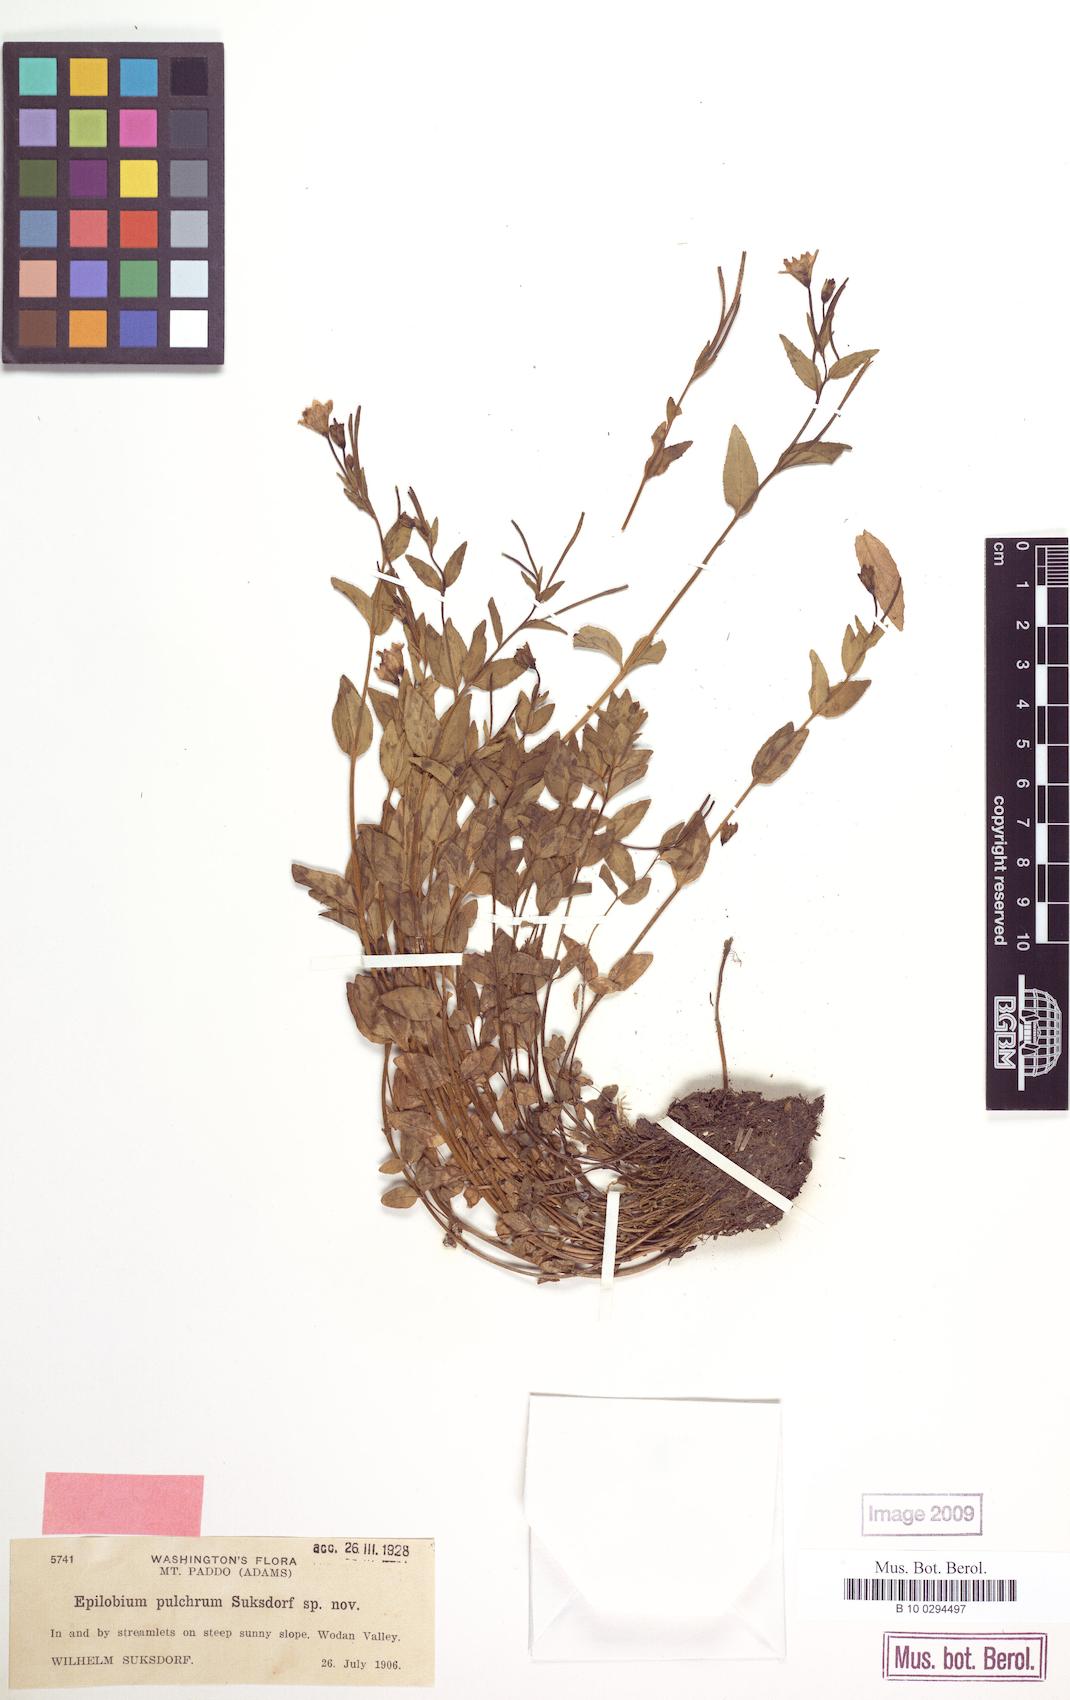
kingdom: Plantae
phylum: Tracheophyta
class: Magnoliopsida
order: Myrtales
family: Onagraceae
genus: Epilobium
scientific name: Epilobium pulchrum
